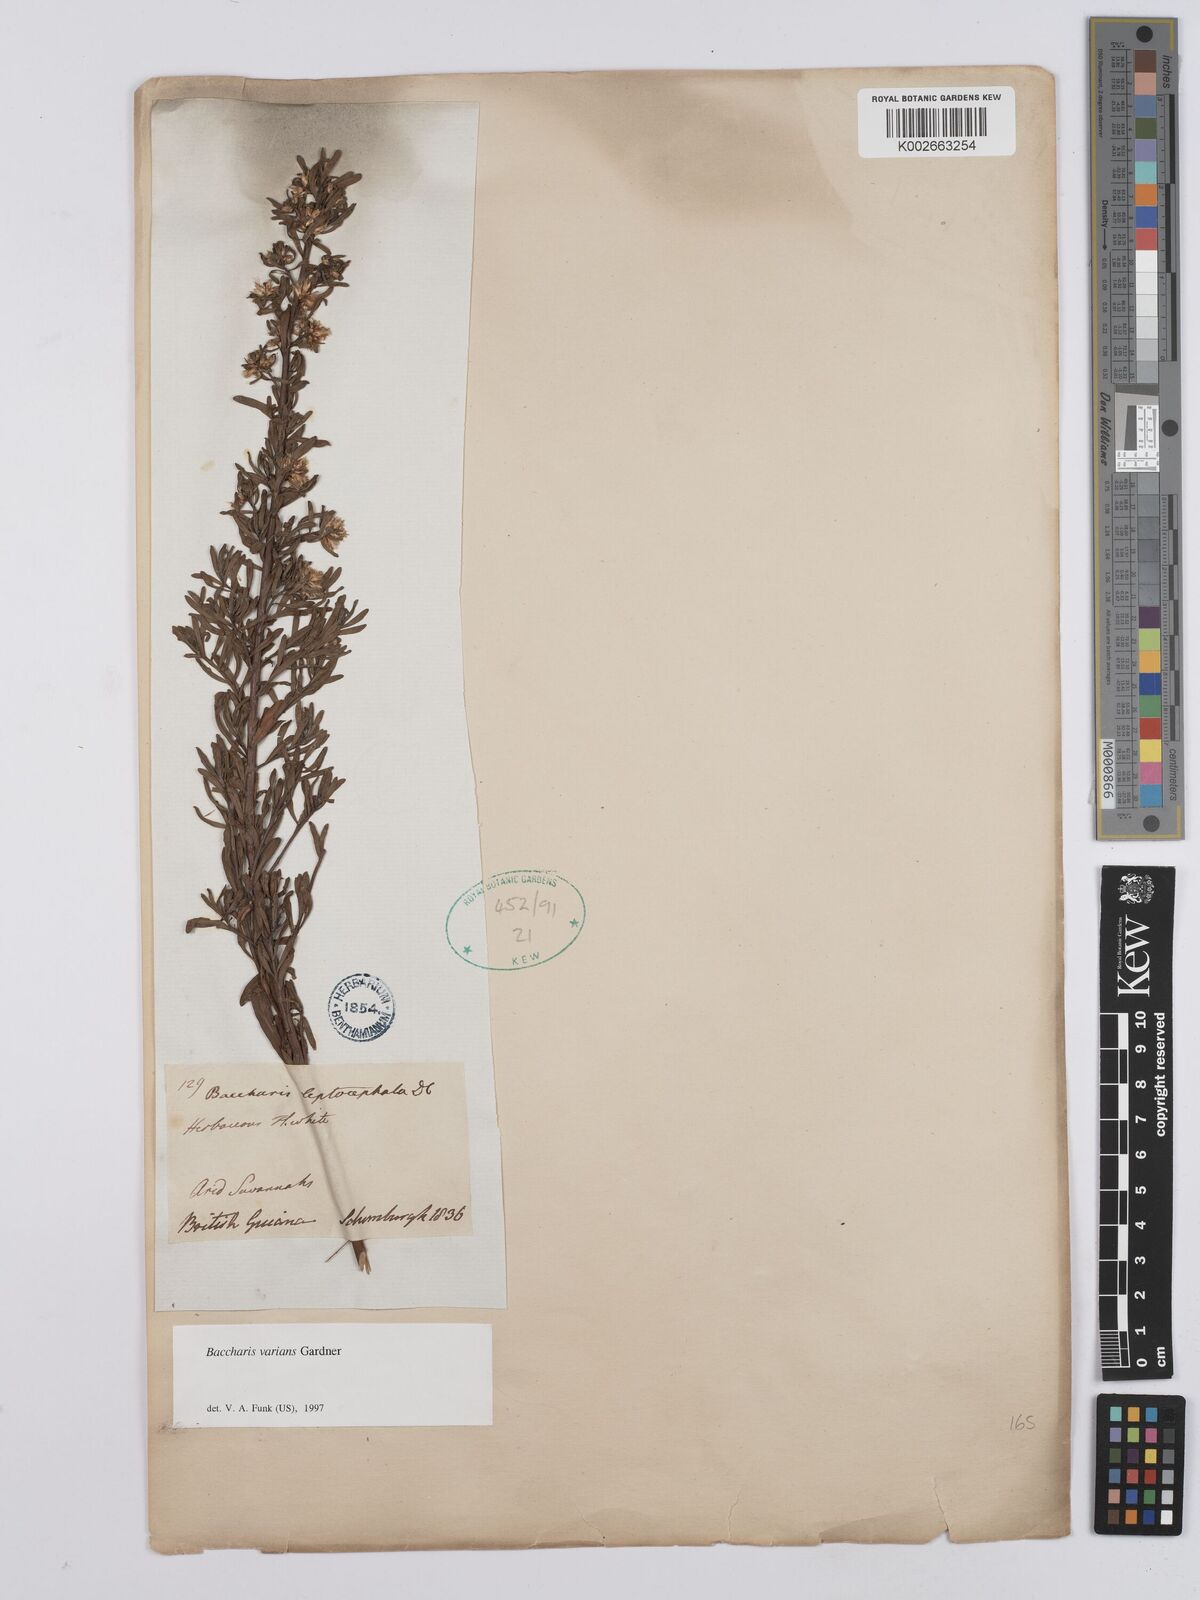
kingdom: Plantae
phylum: Tracheophyta
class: Magnoliopsida
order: Asterales
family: Asteraceae
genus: Baccharis
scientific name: Baccharis varians
